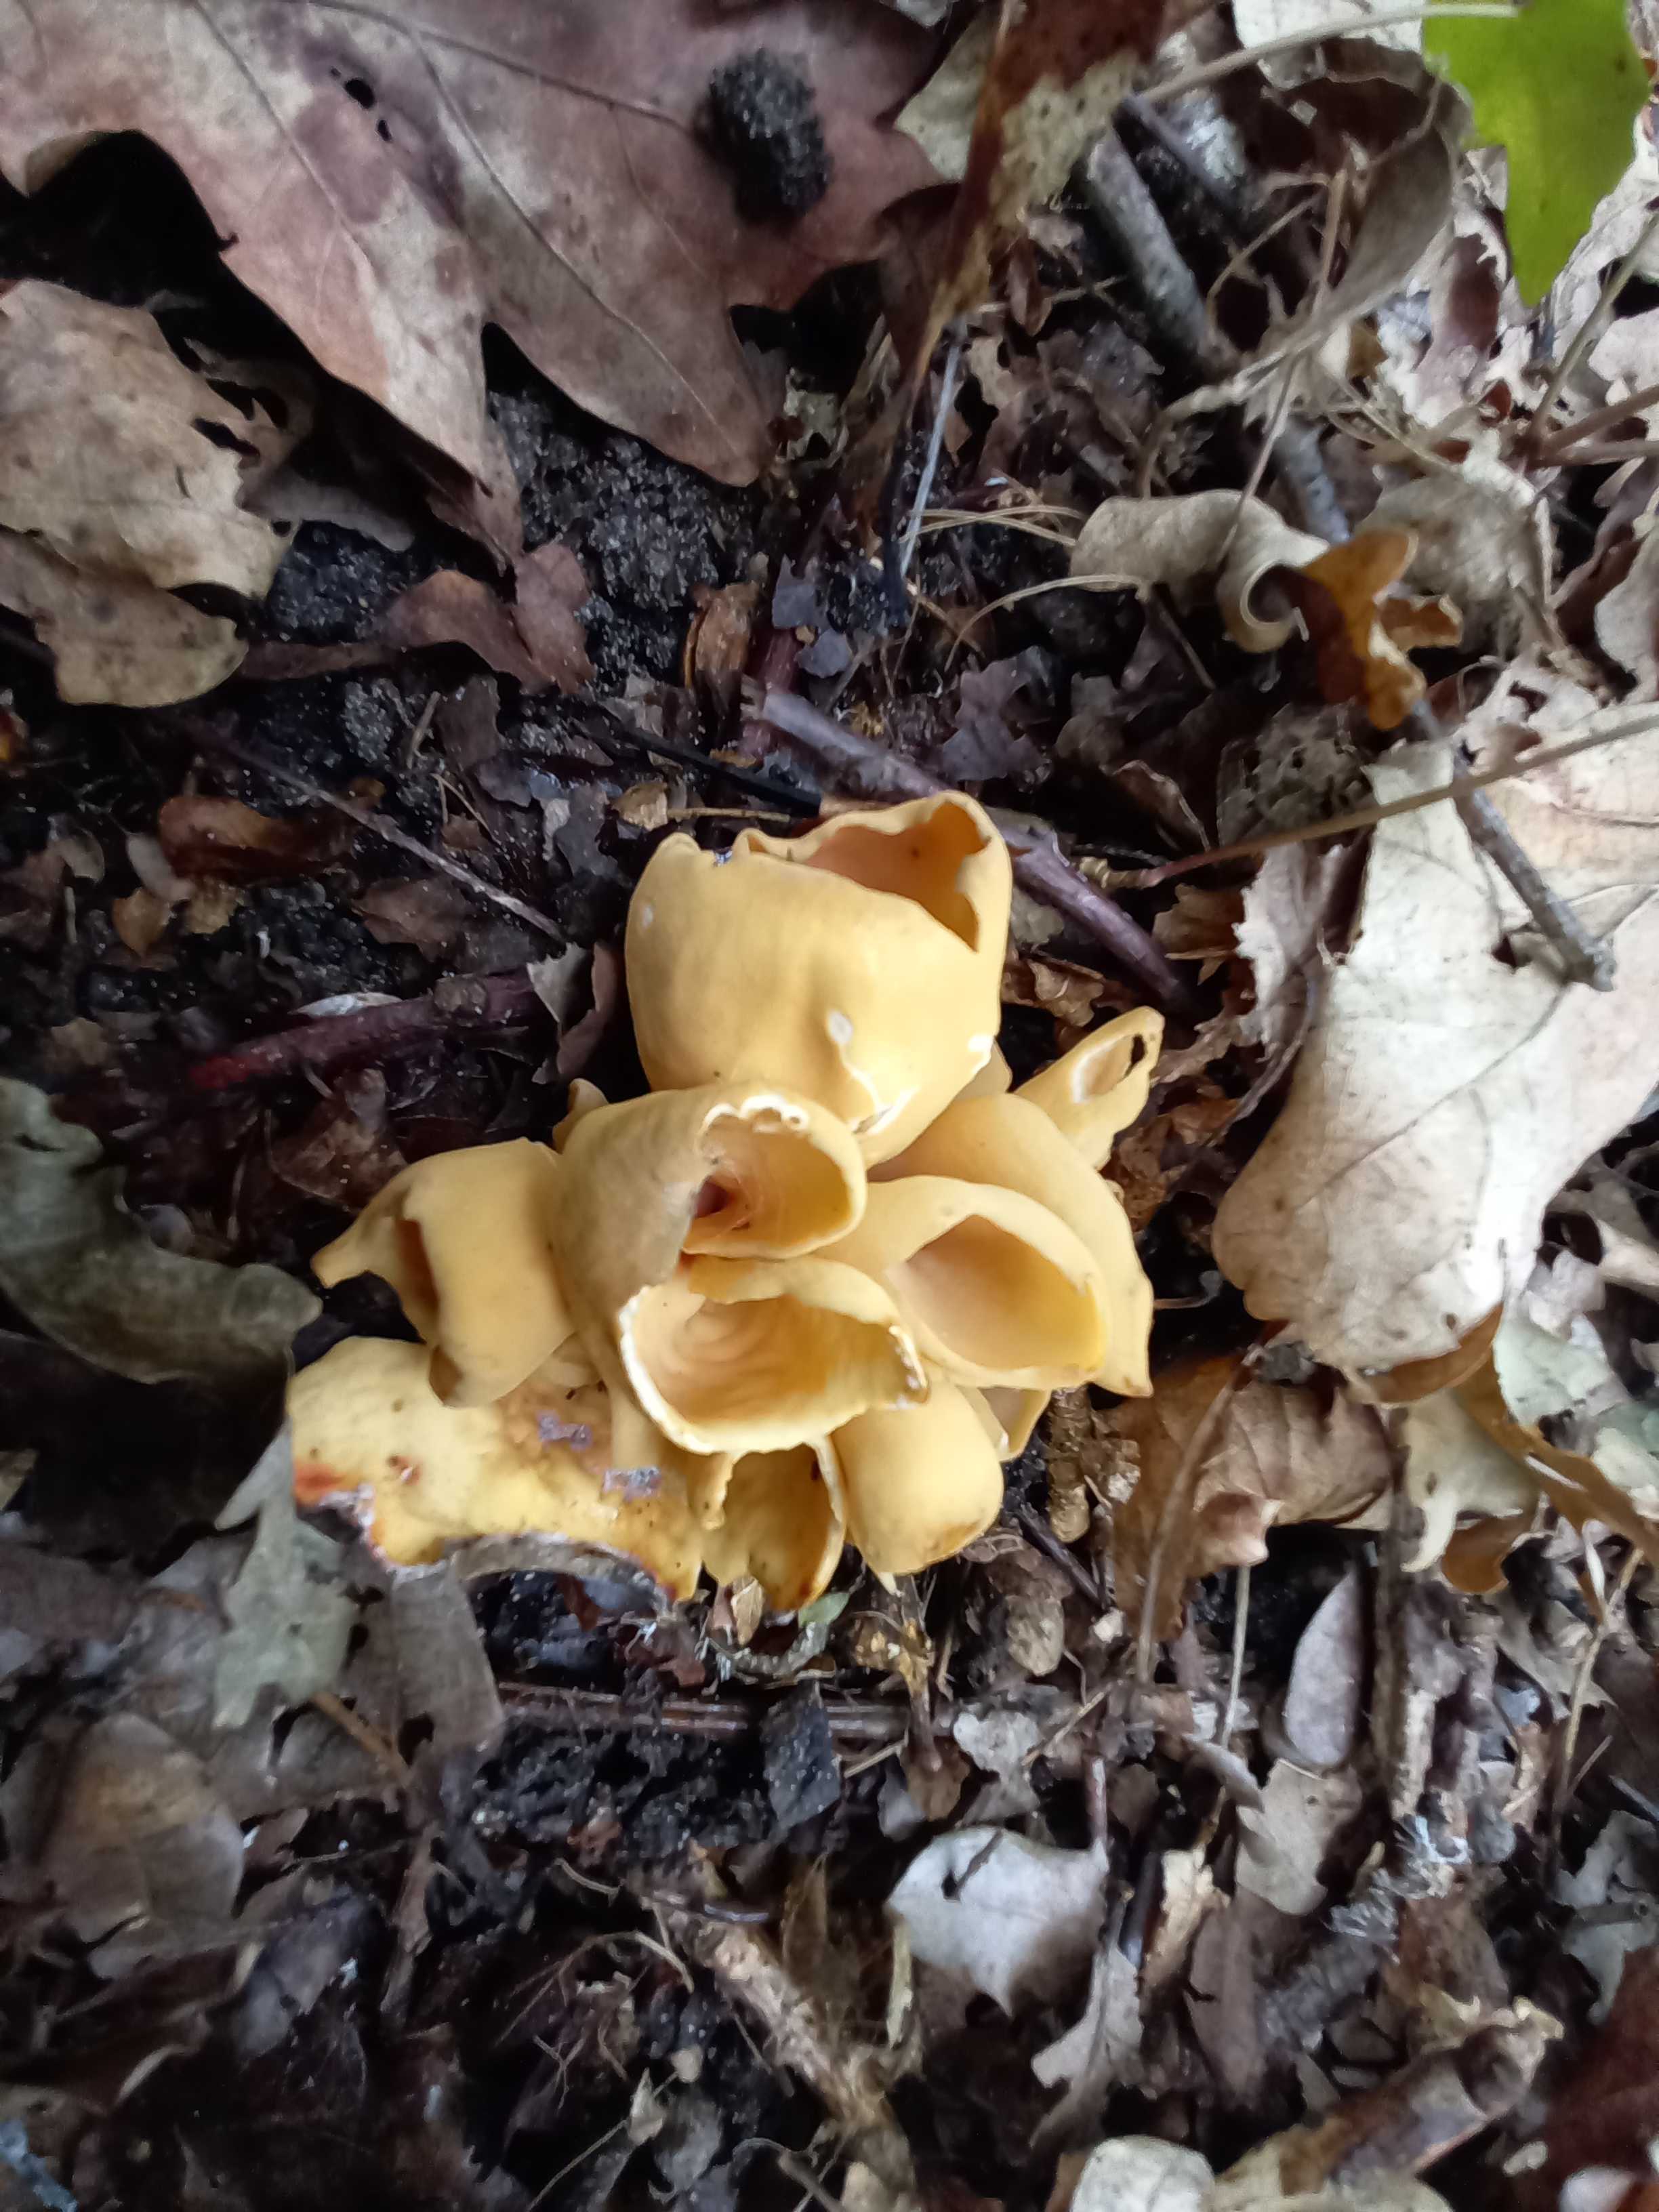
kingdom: Fungi
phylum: Ascomycota
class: Pezizomycetes
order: Pezizales
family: Otideaceae
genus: Otidea
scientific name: Otidea onotica
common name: æsel-ørebæger
